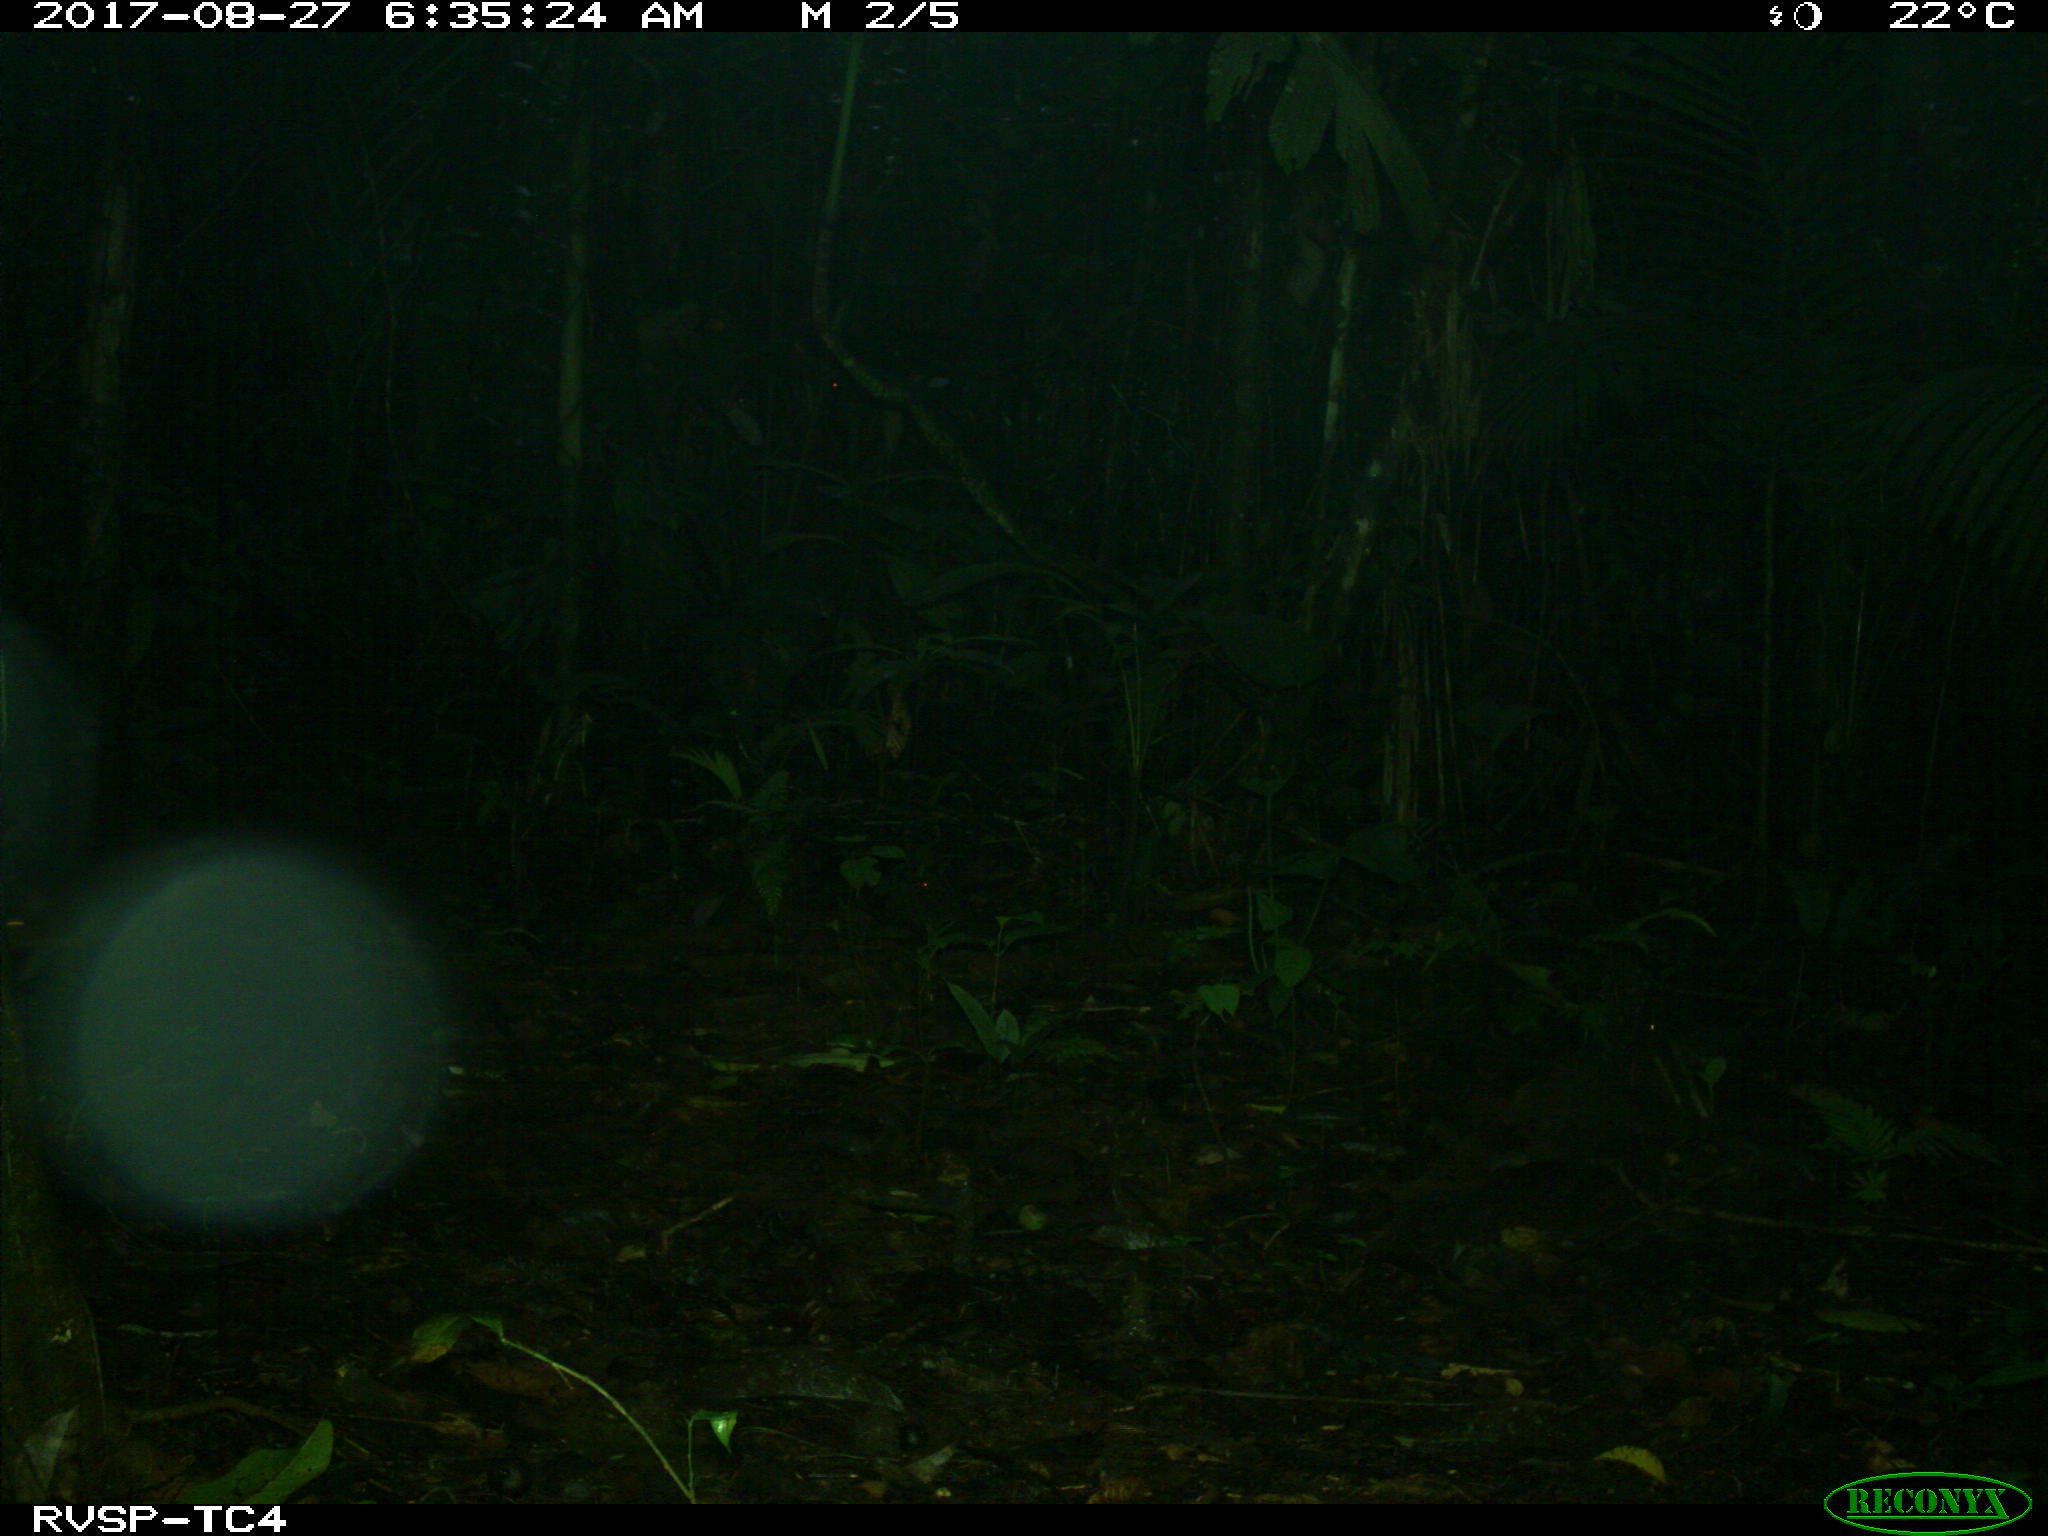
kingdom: Animalia
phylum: Chordata
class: Mammalia
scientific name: Mammalia
